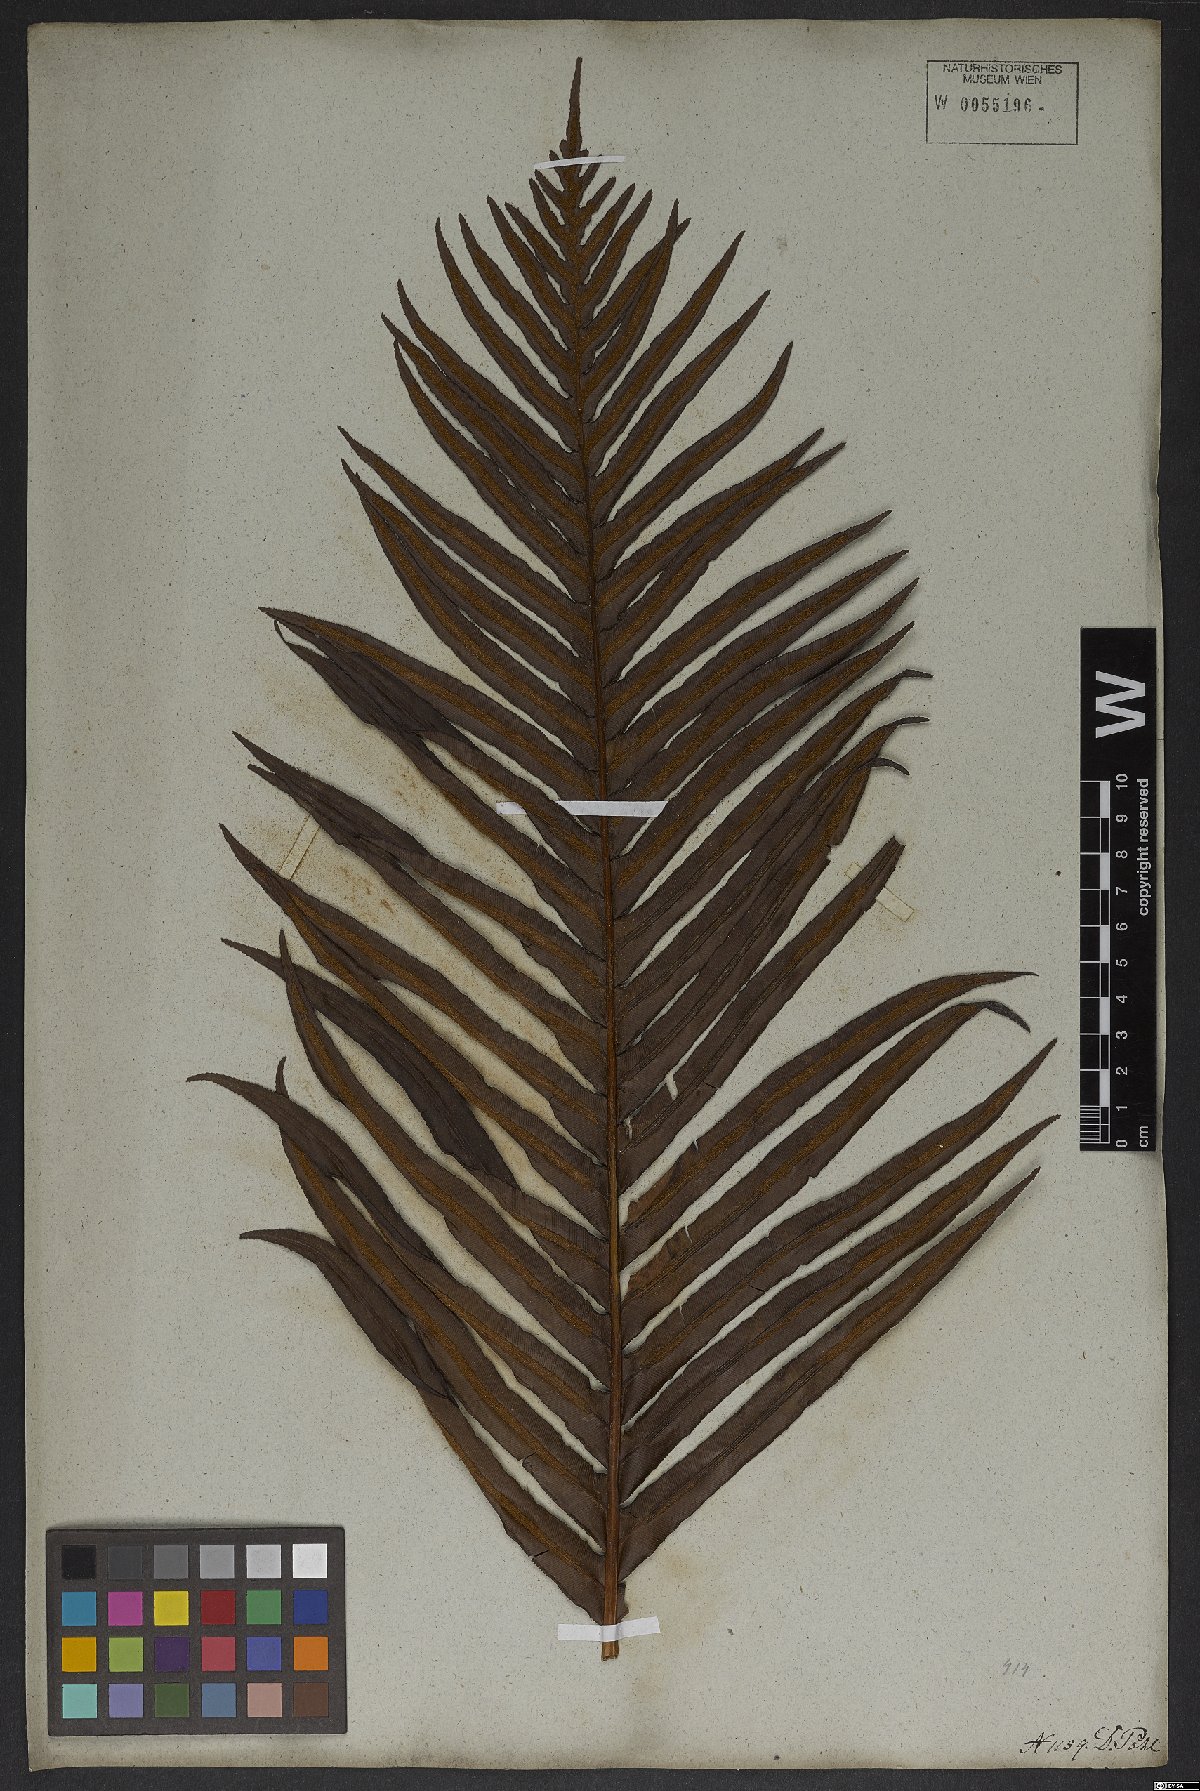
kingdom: Plantae
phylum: Tracheophyta
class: Polypodiopsida
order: Polypodiales
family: Blechnaceae
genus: Neoblechnum
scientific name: Neoblechnum brasiliense
